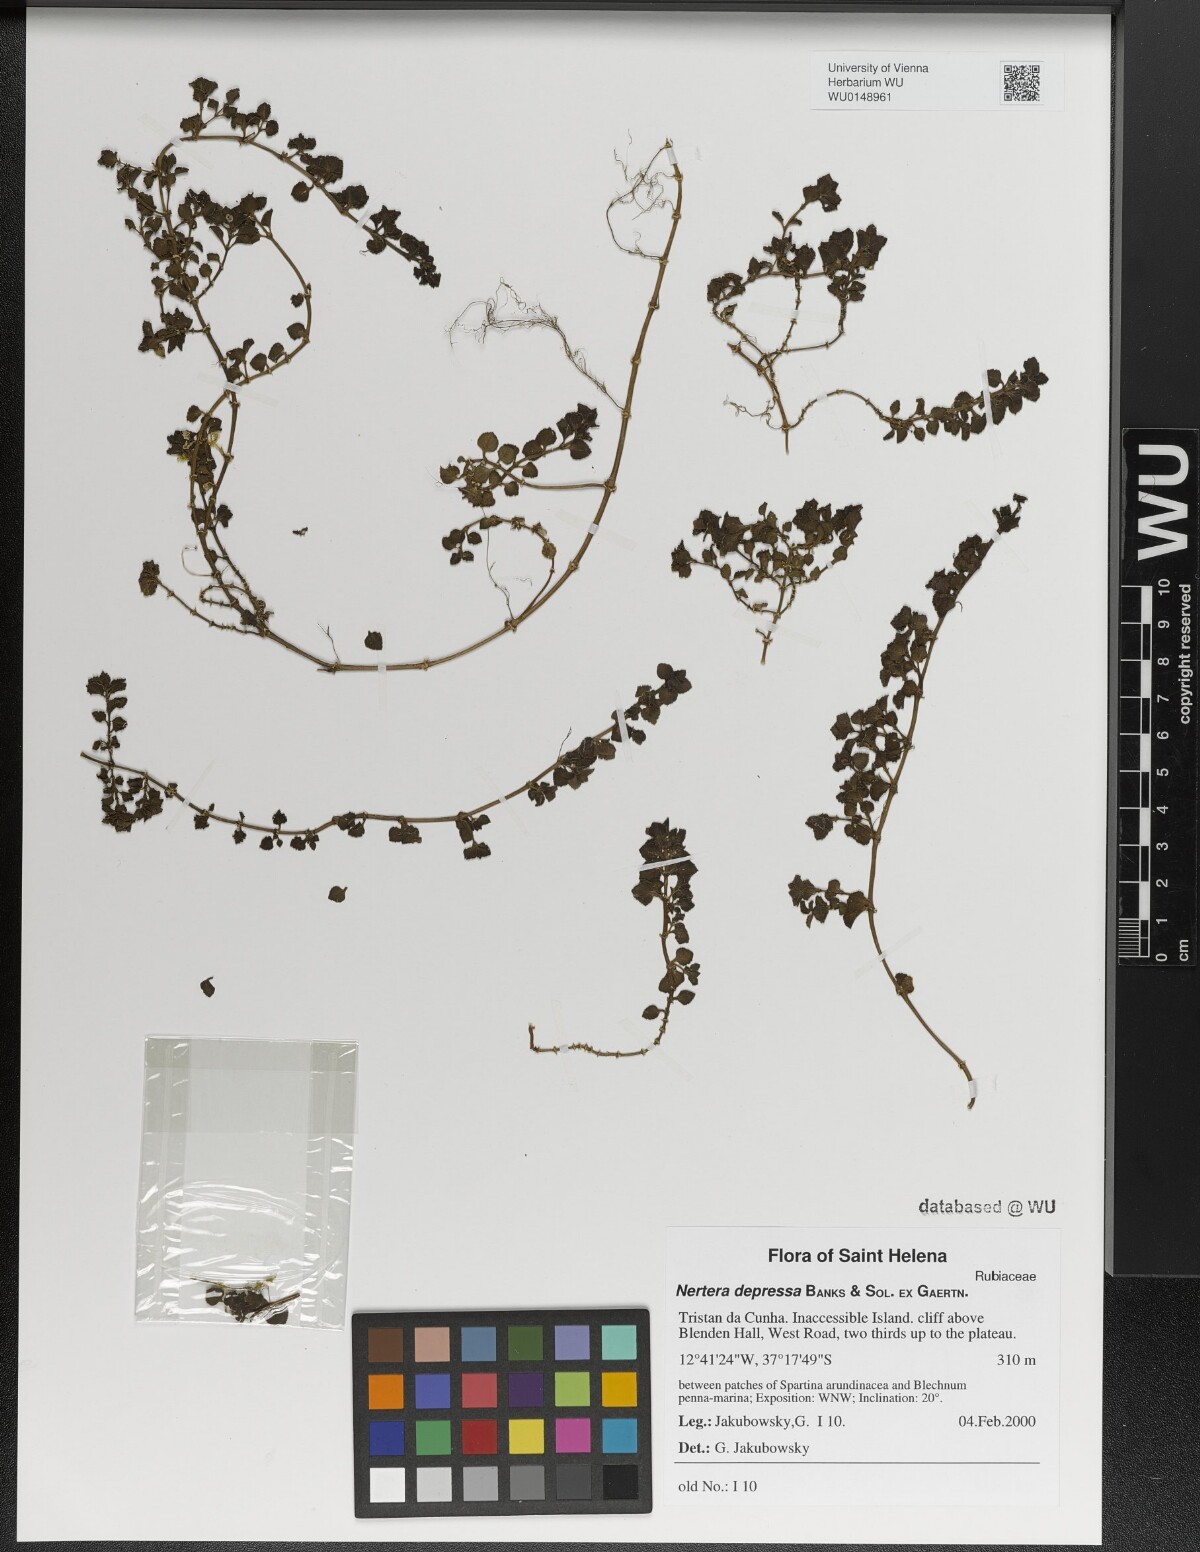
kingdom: Plantae
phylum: Tracheophyta
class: Magnoliopsida
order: Gentianales
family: Rubiaceae
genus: Nertera
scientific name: Nertera granadensis
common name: Beadplant
